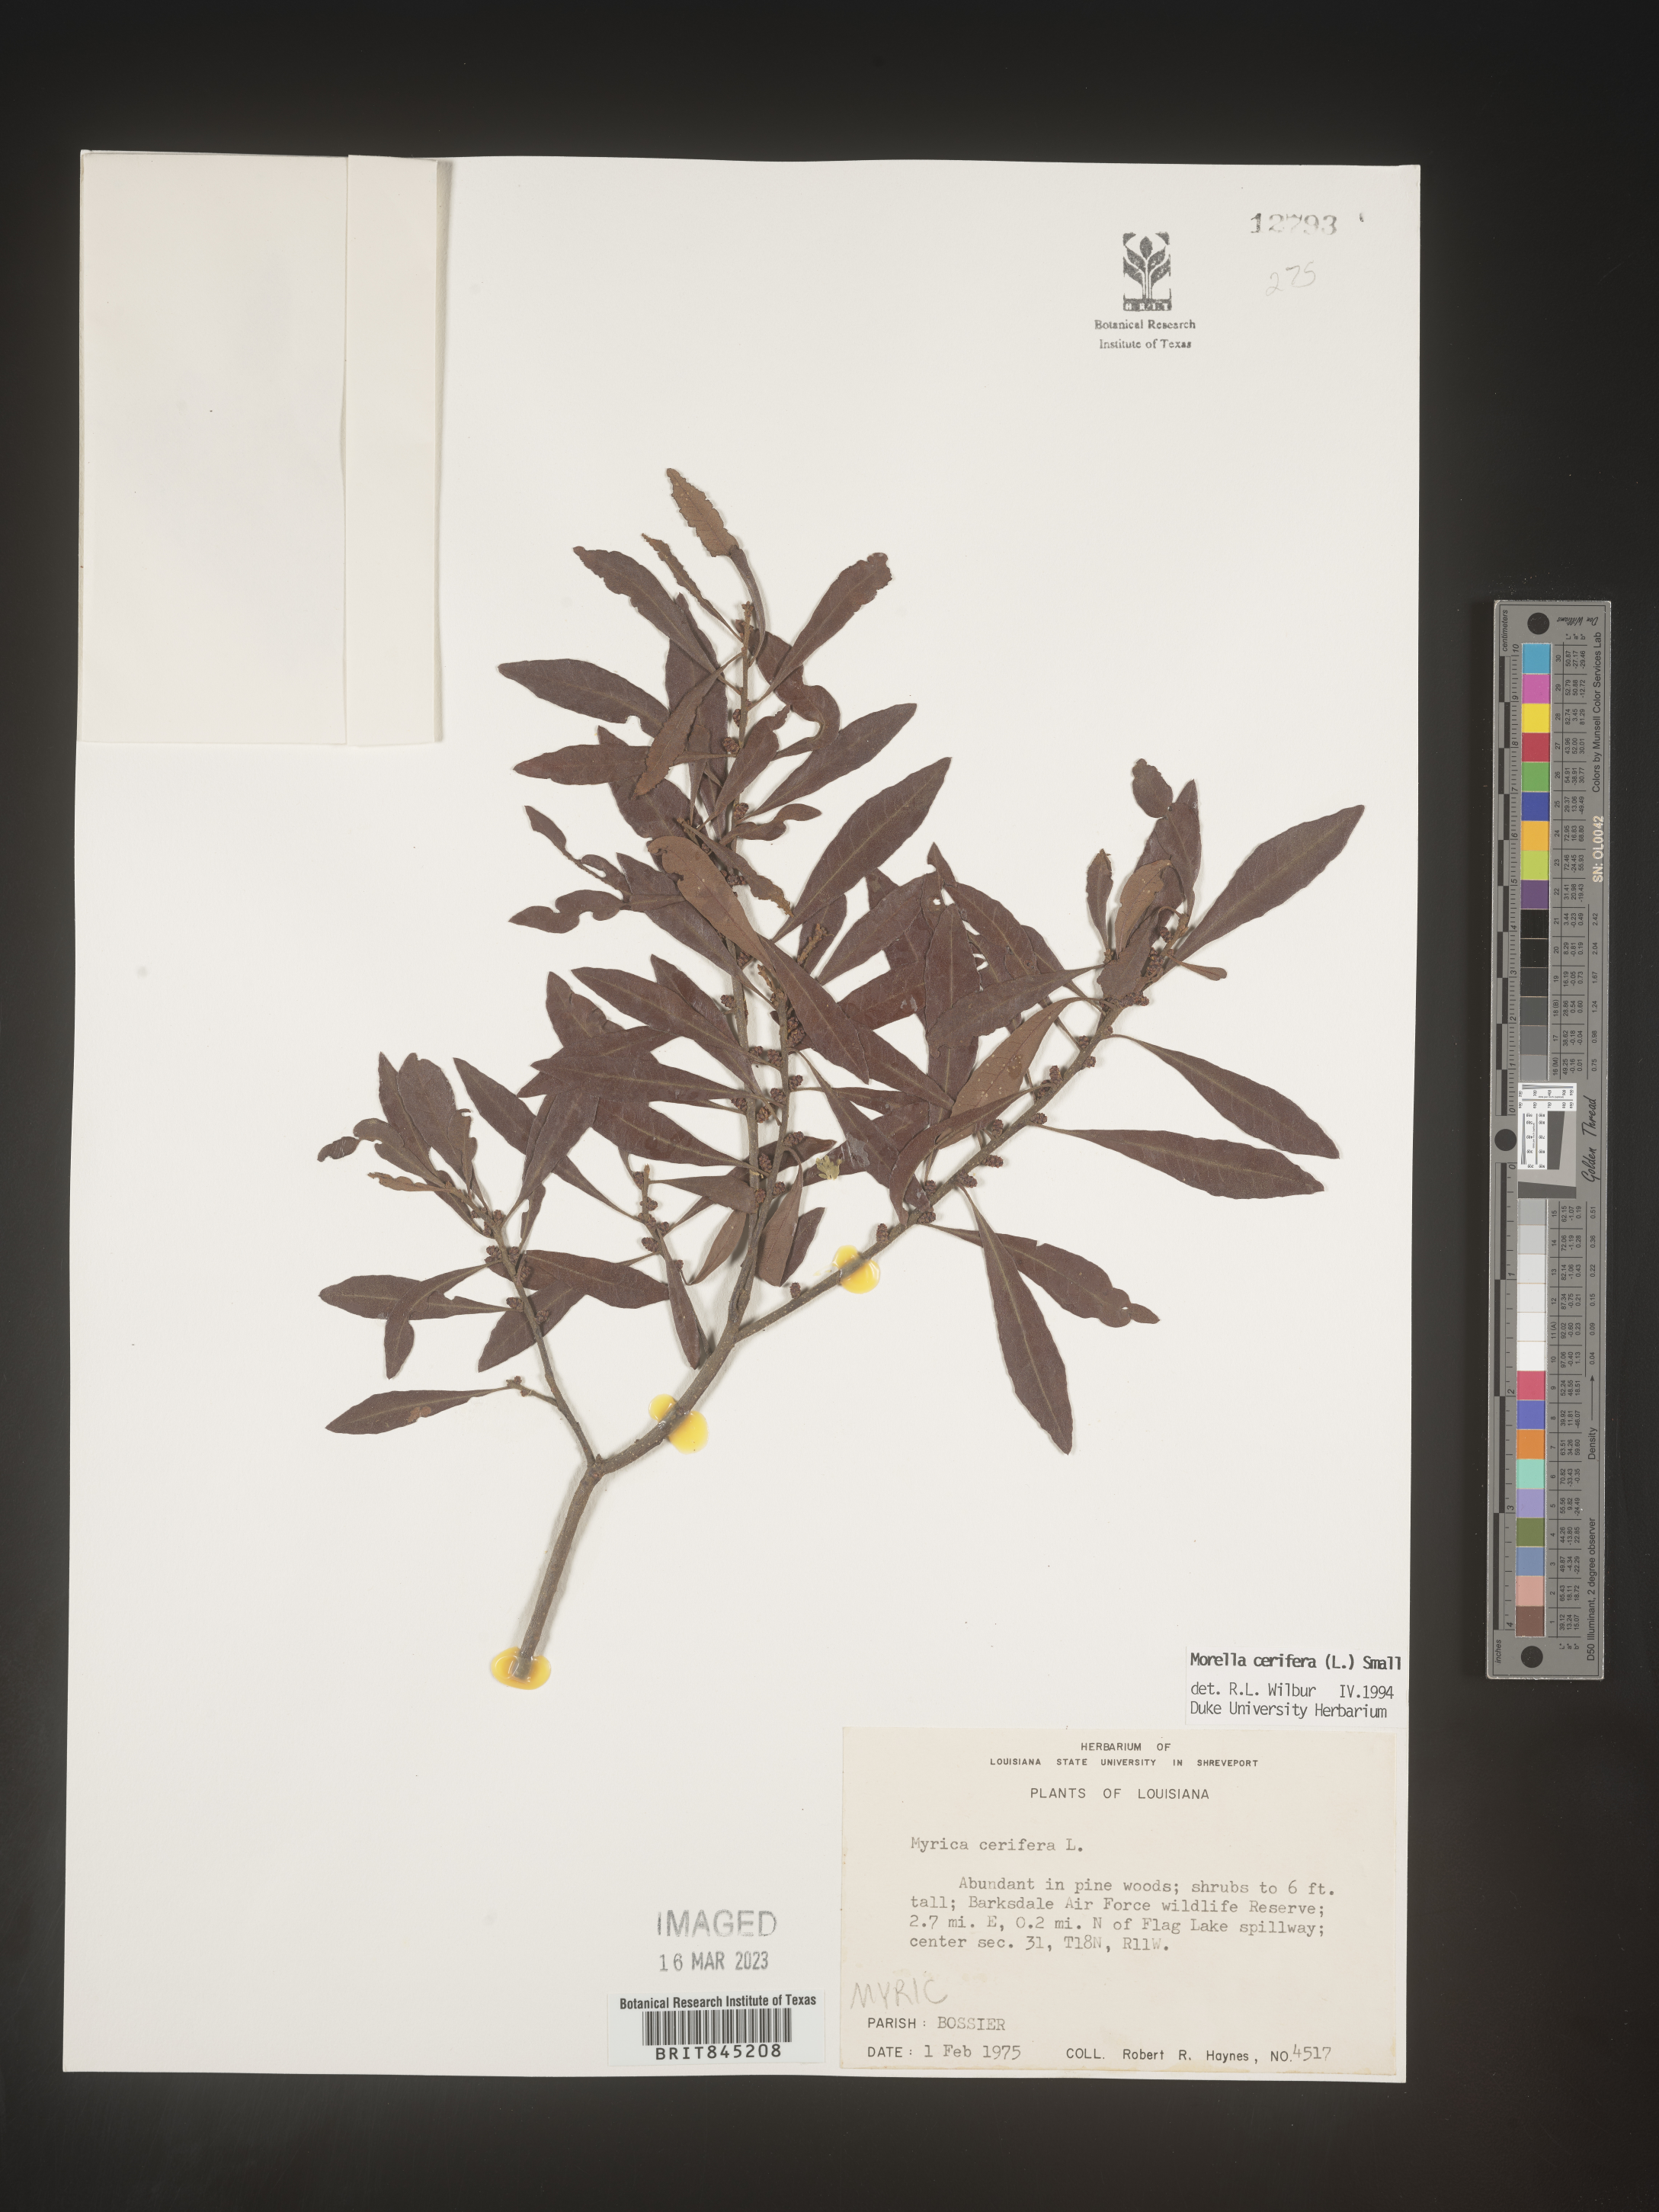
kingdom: Plantae
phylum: Tracheophyta
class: Magnoliopsida
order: Fagales
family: Myricaceae
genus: Morella
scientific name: Morella cerifera
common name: Wax myrtle
